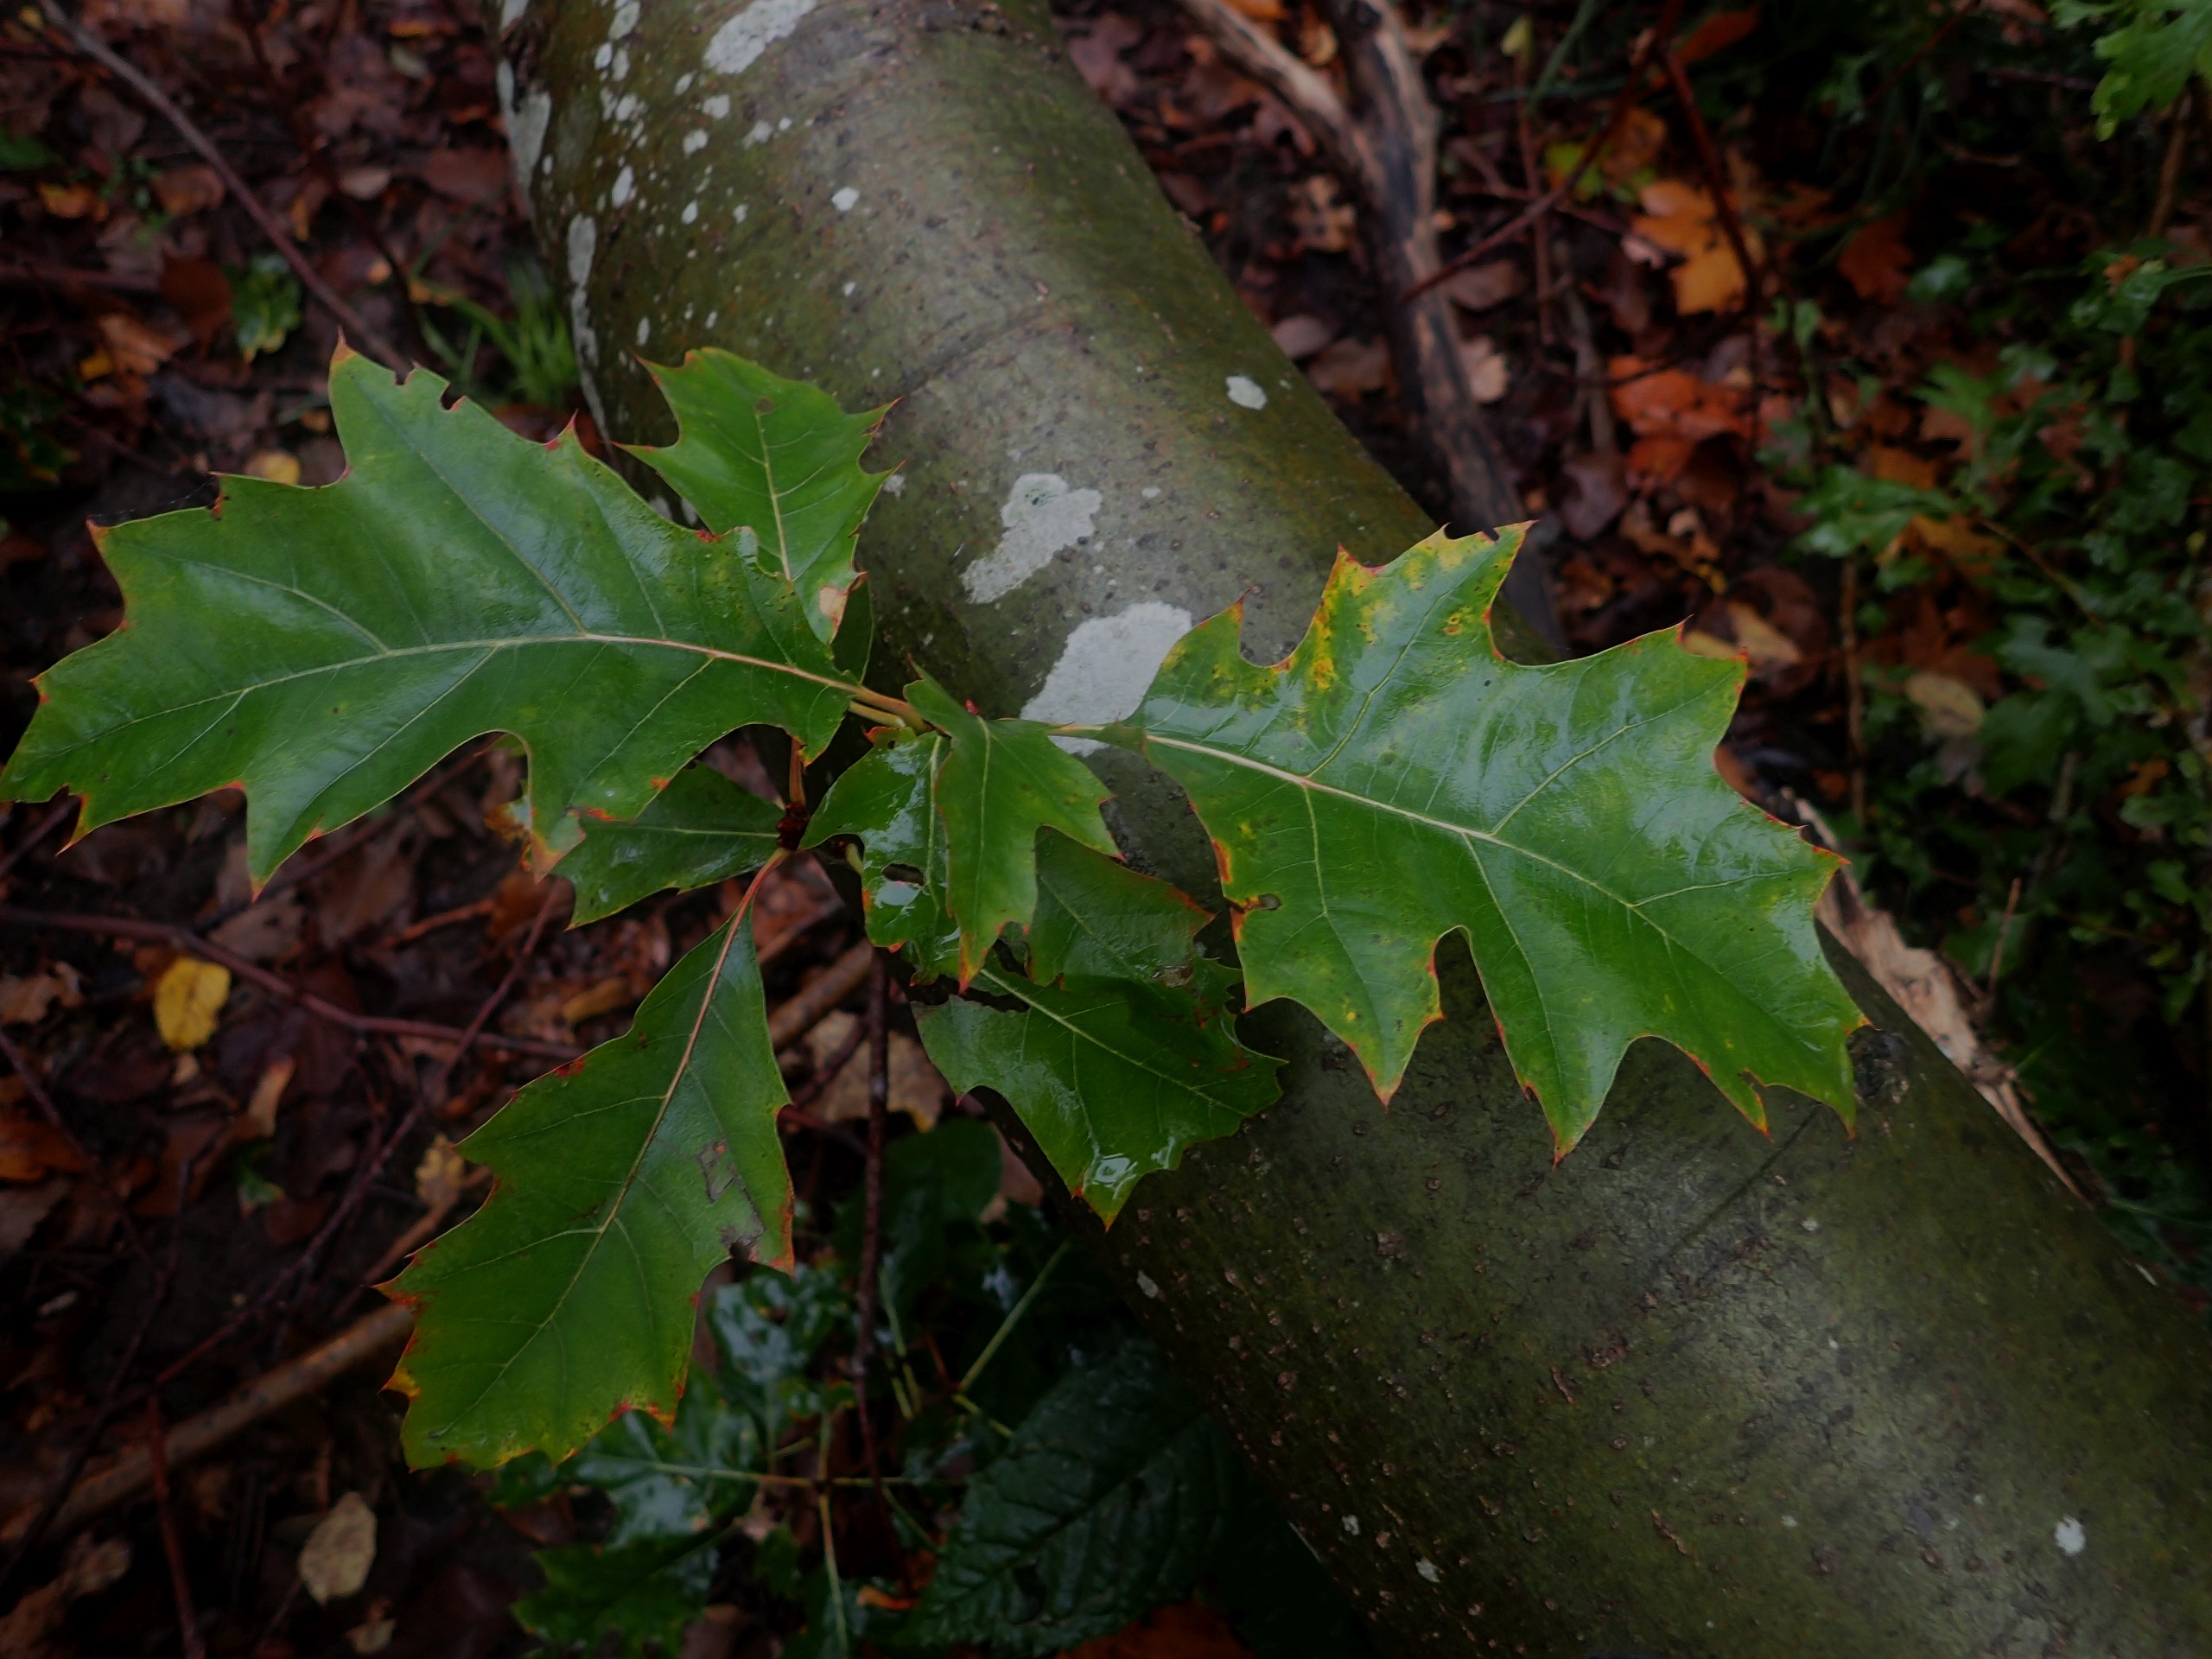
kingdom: Plantae
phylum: Tracheophyta
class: Magnoliopsida
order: Fagales
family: Fagaceae
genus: Quercus
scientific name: Quercus rubra
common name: Rød-eg
